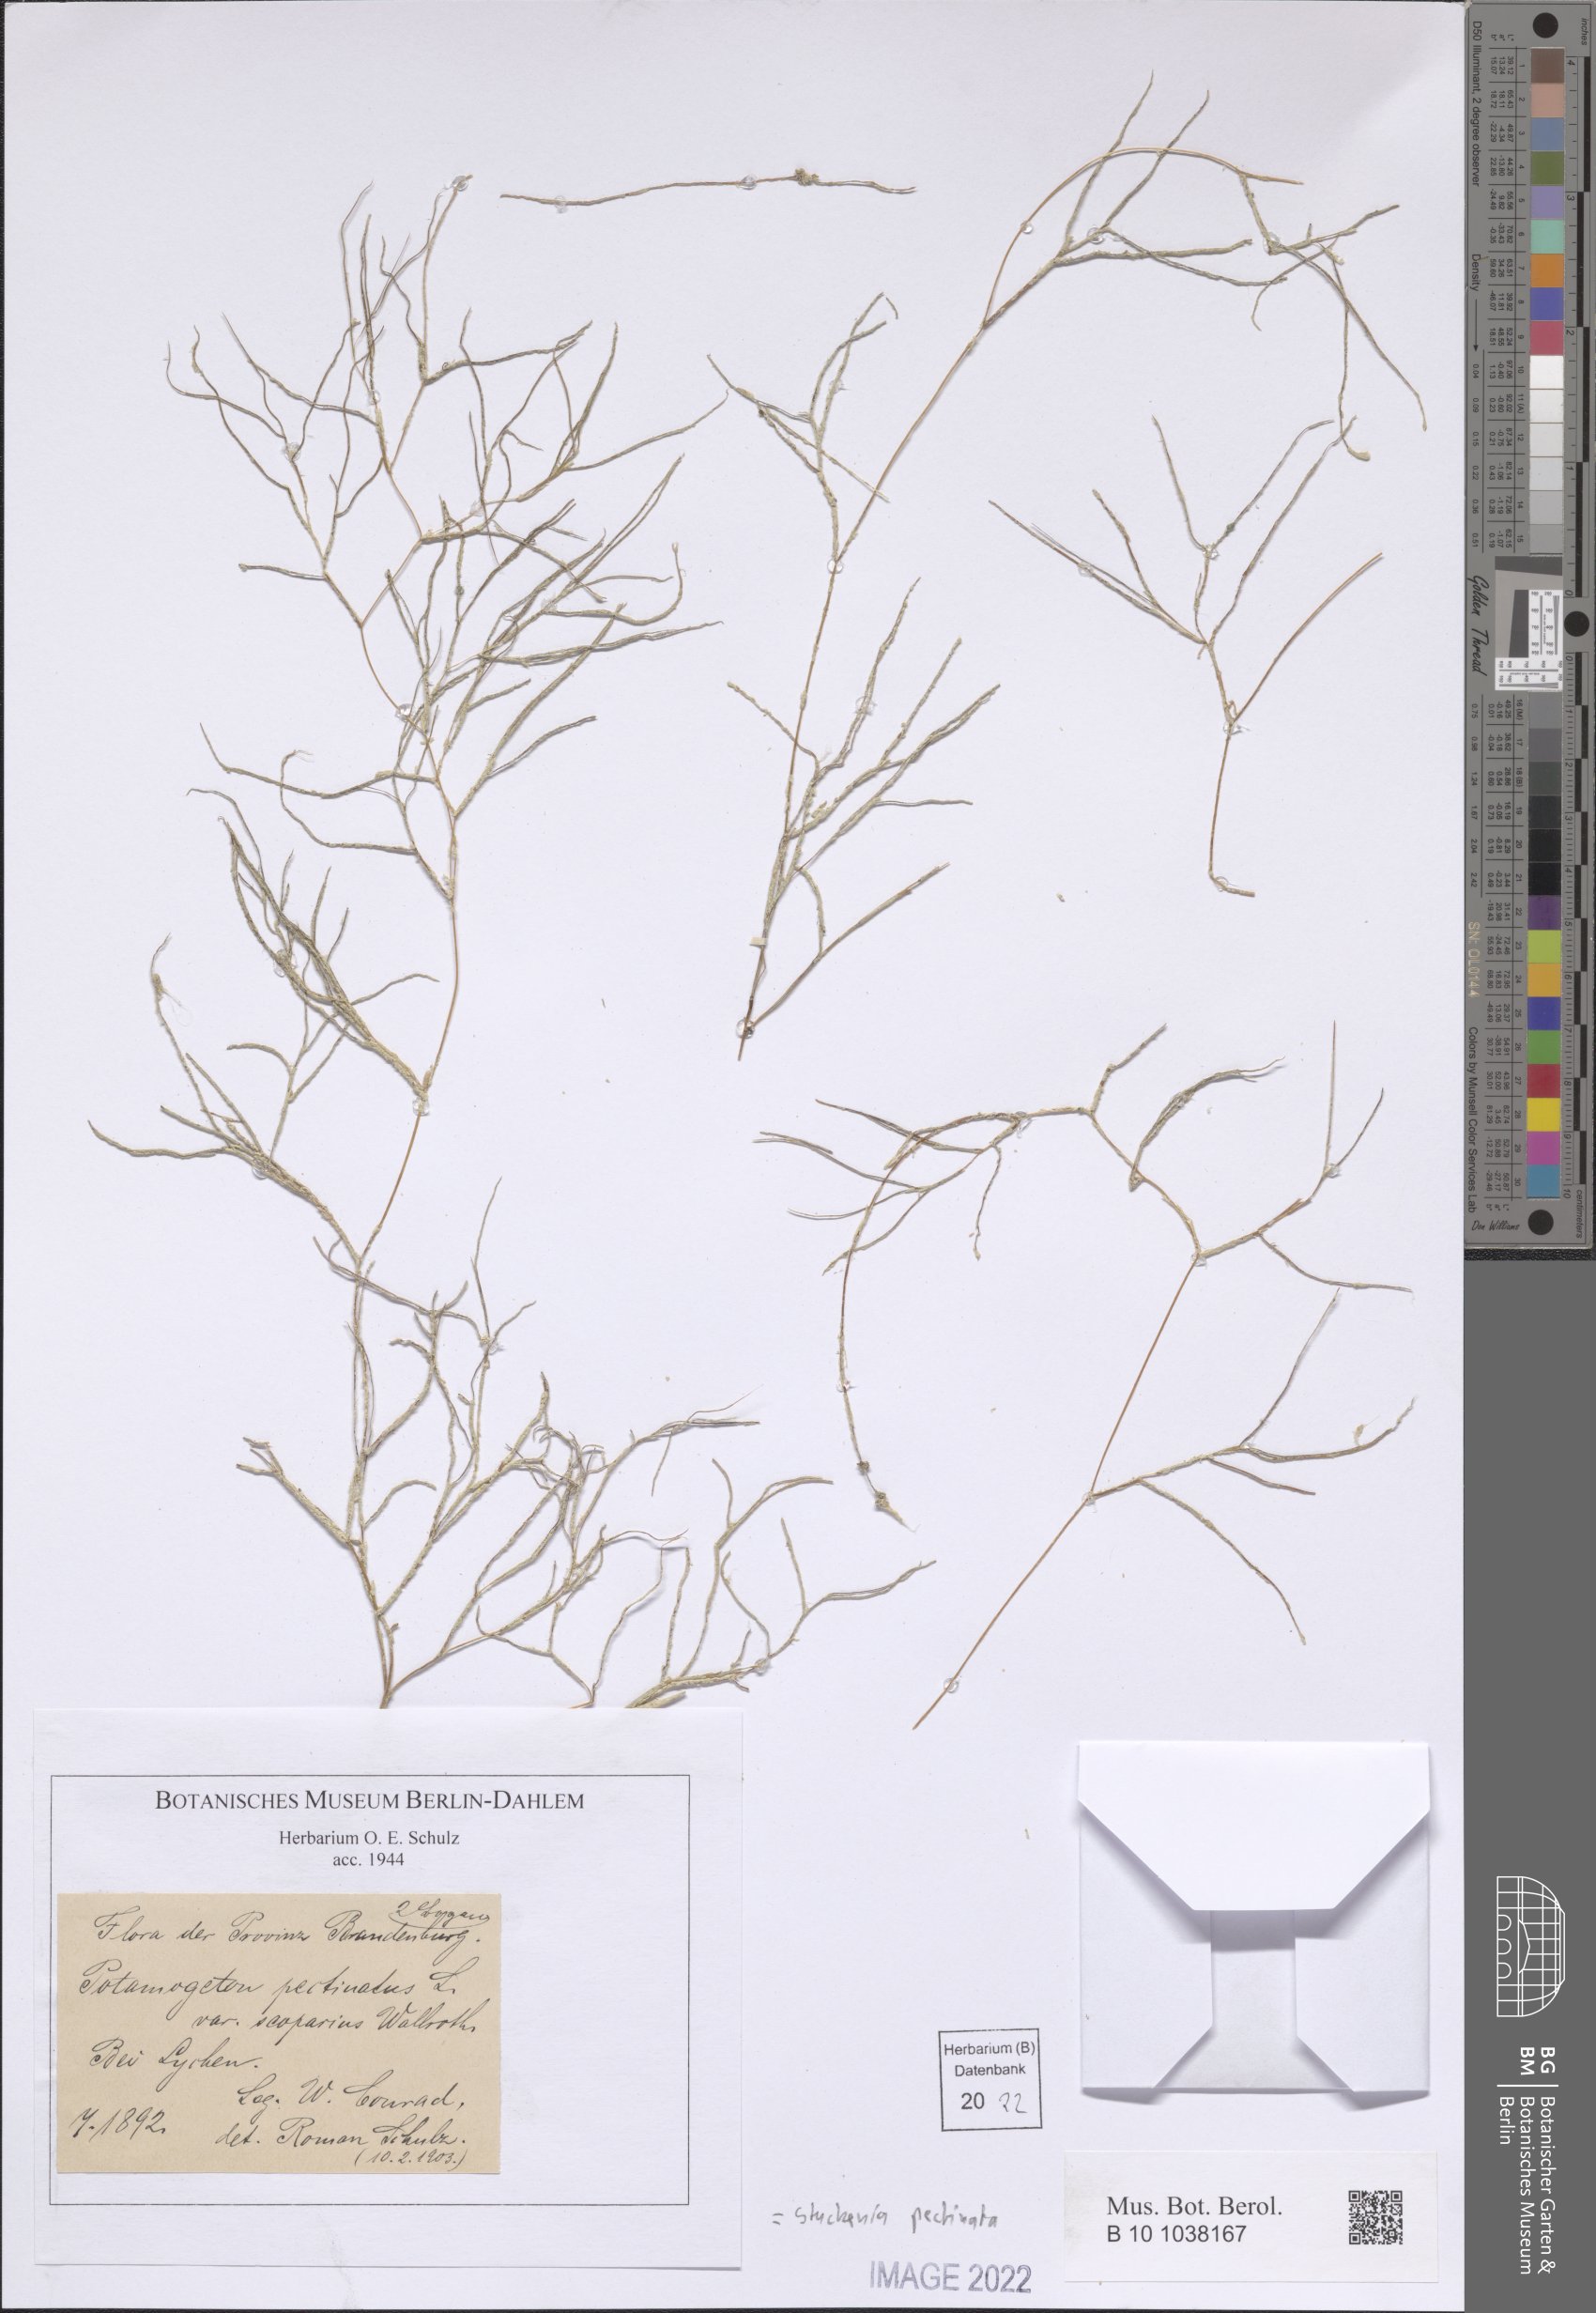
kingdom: Plantae
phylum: Tracheophyta
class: Liliopsida
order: Alismatales
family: Potamogetonaceae
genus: Stuckenia
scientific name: Stuckenia pectinata
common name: Sago pondweed
